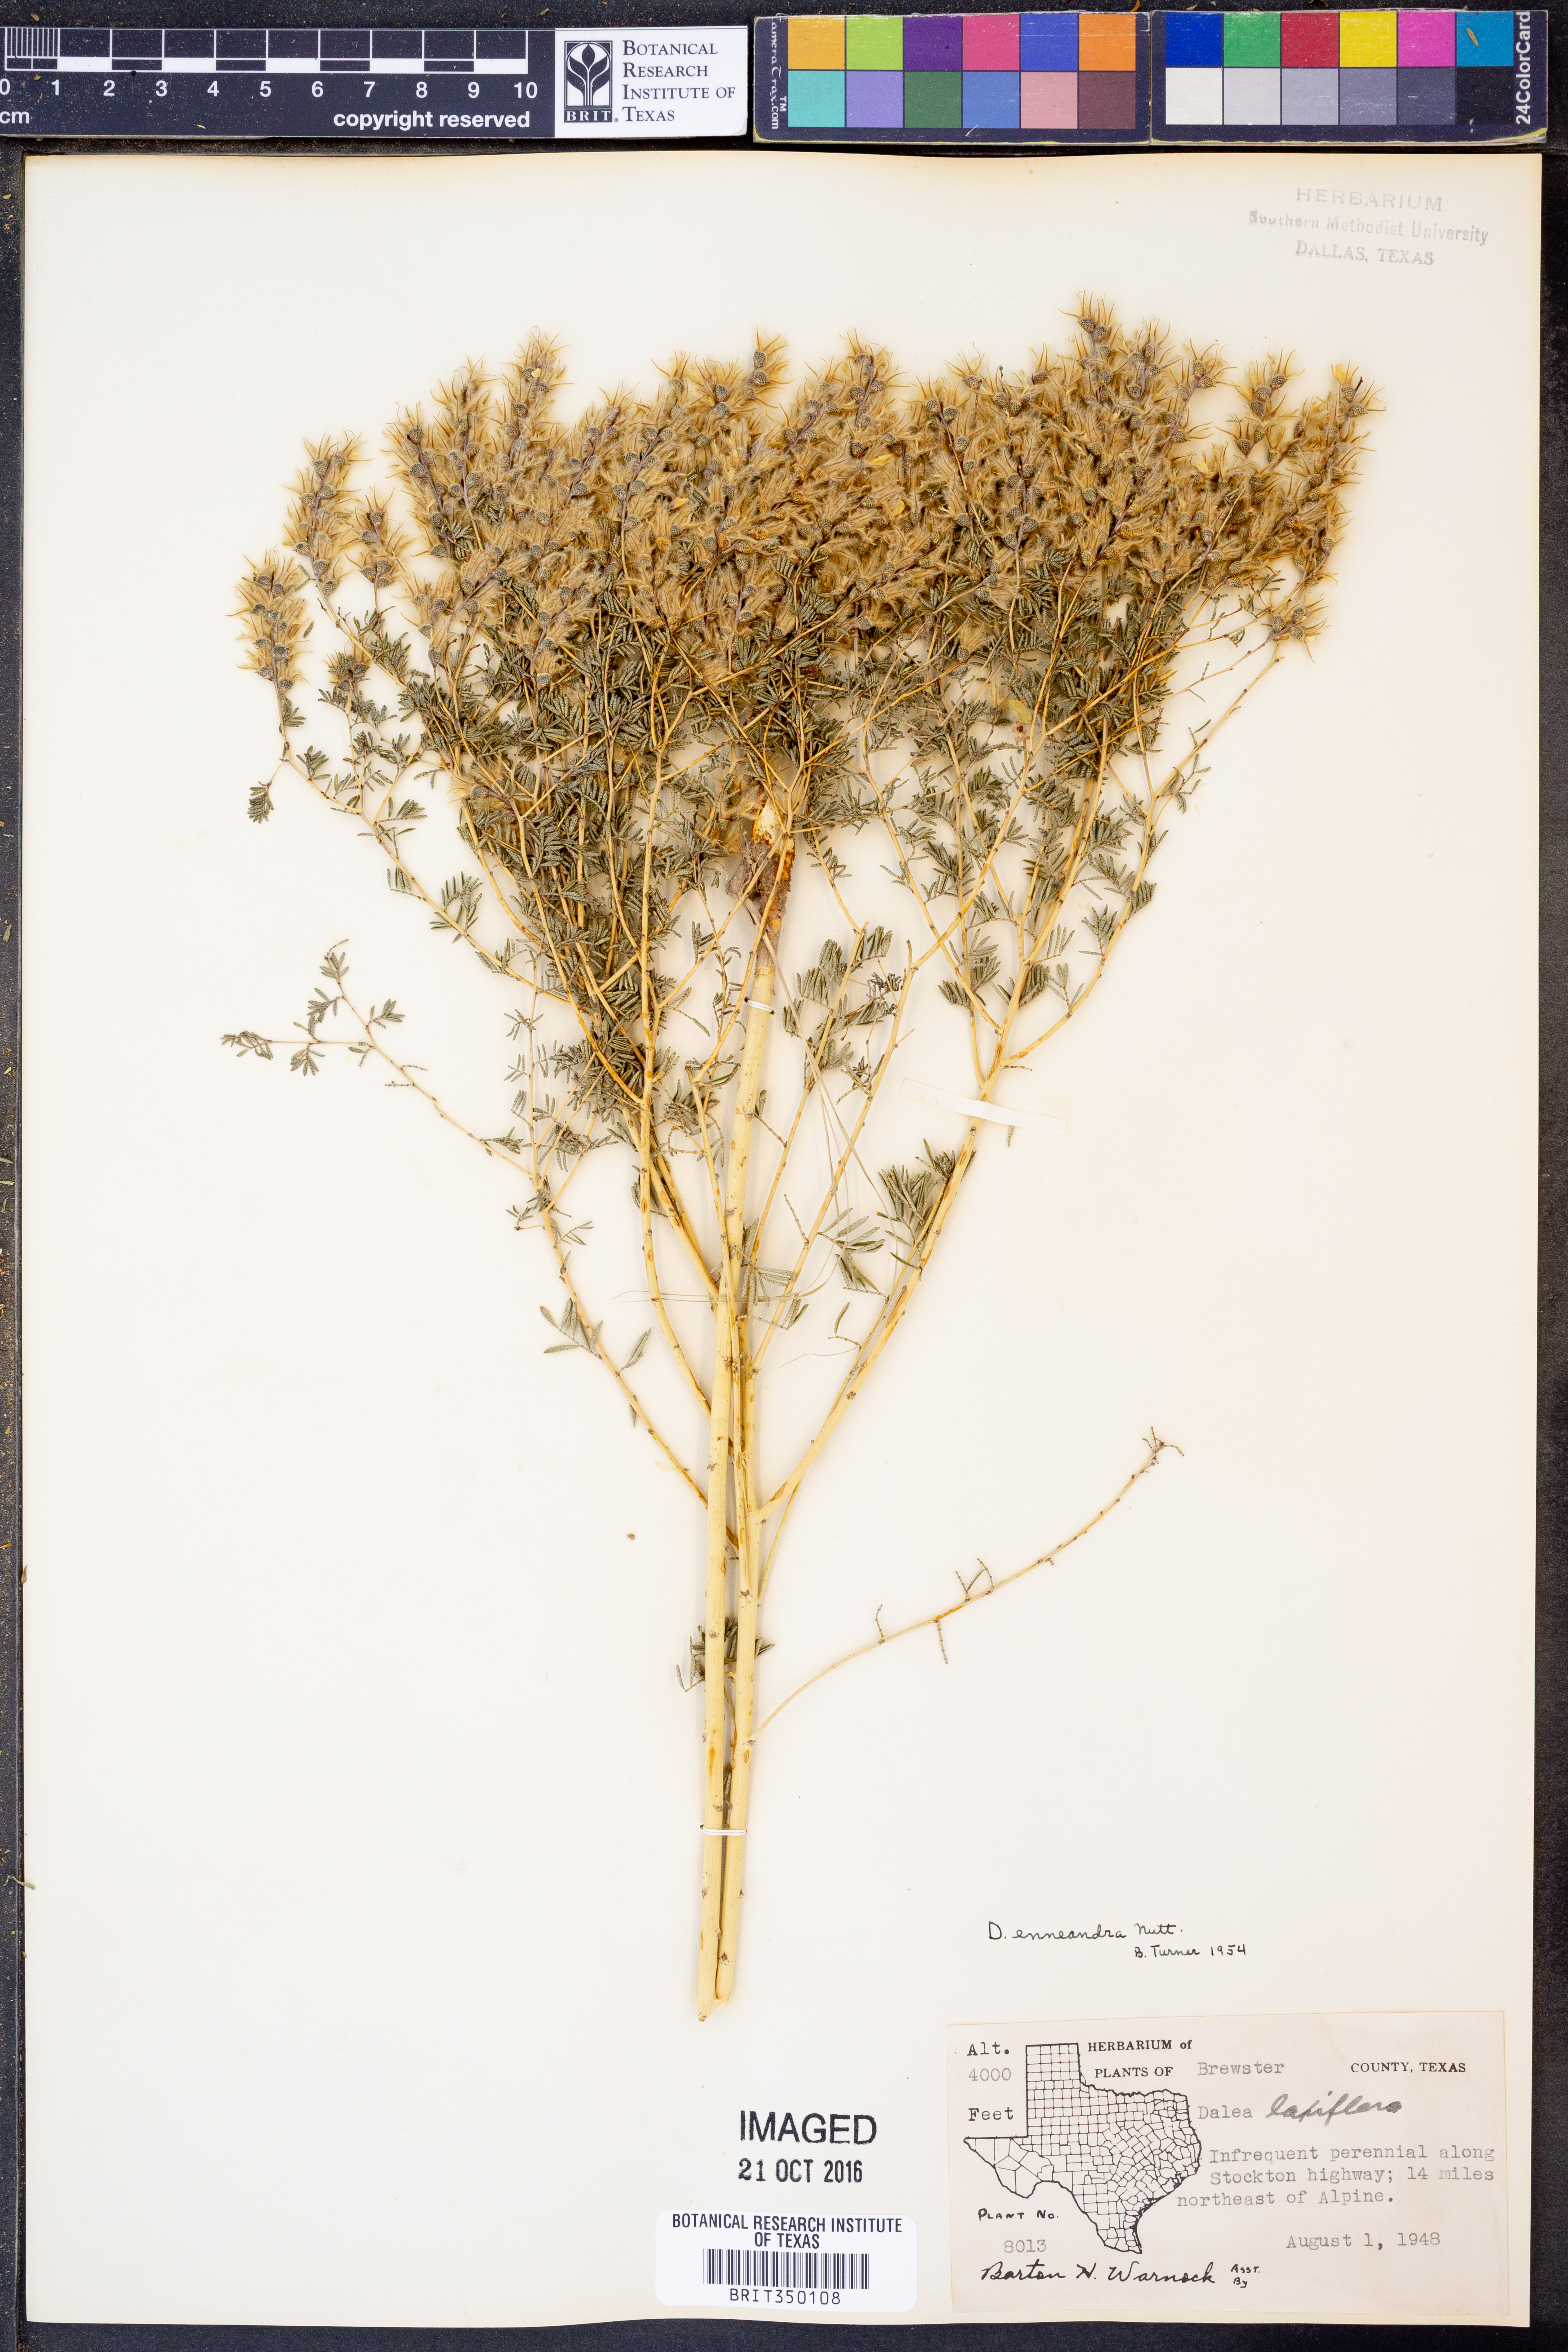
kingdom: Plantae
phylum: Tracheophyta
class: Magnoliopsida
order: Fabales
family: Fabaceae
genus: Dalea
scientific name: Dalea enneandra
